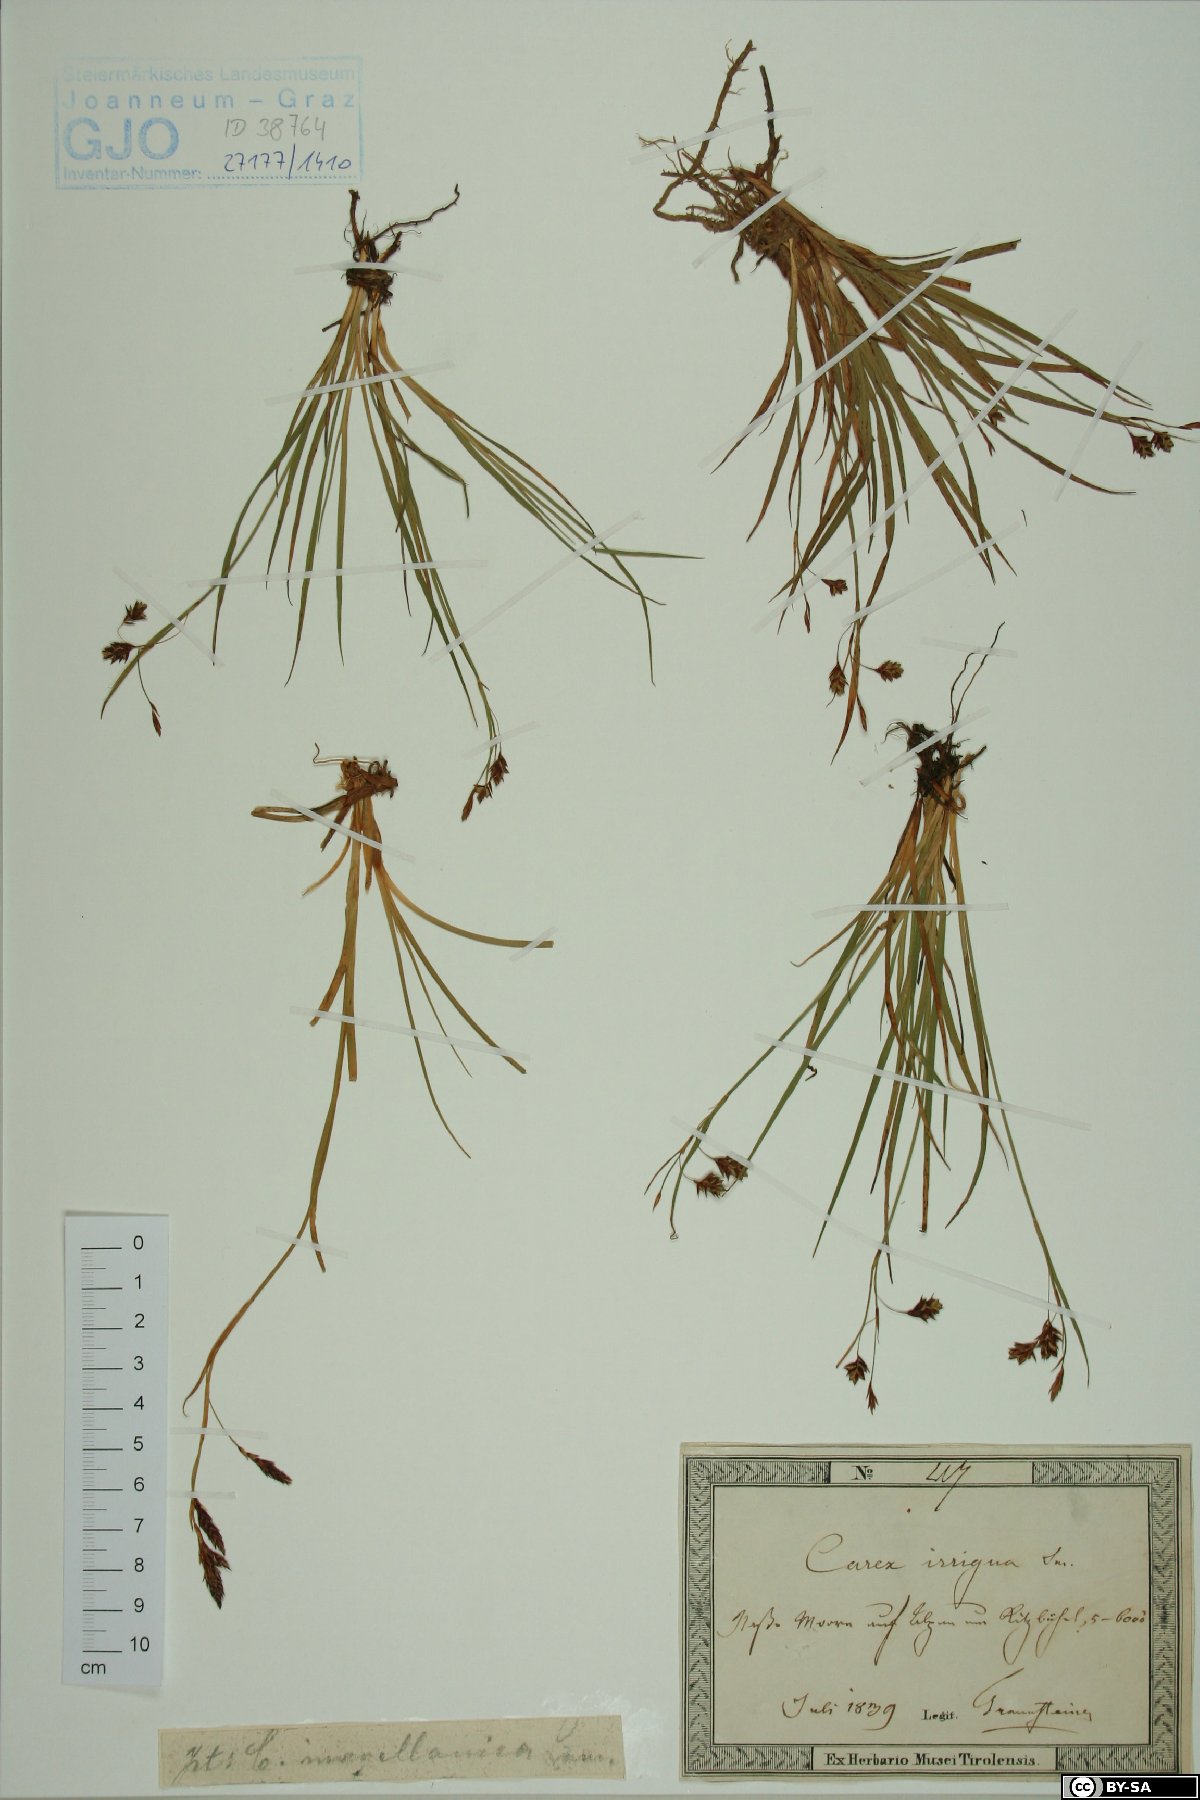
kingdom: Plantae
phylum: Tracheophyta
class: Liliopsida
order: Poales
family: Cyperaceae
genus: Carex
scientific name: Carex magellanica
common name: Bog sedge
